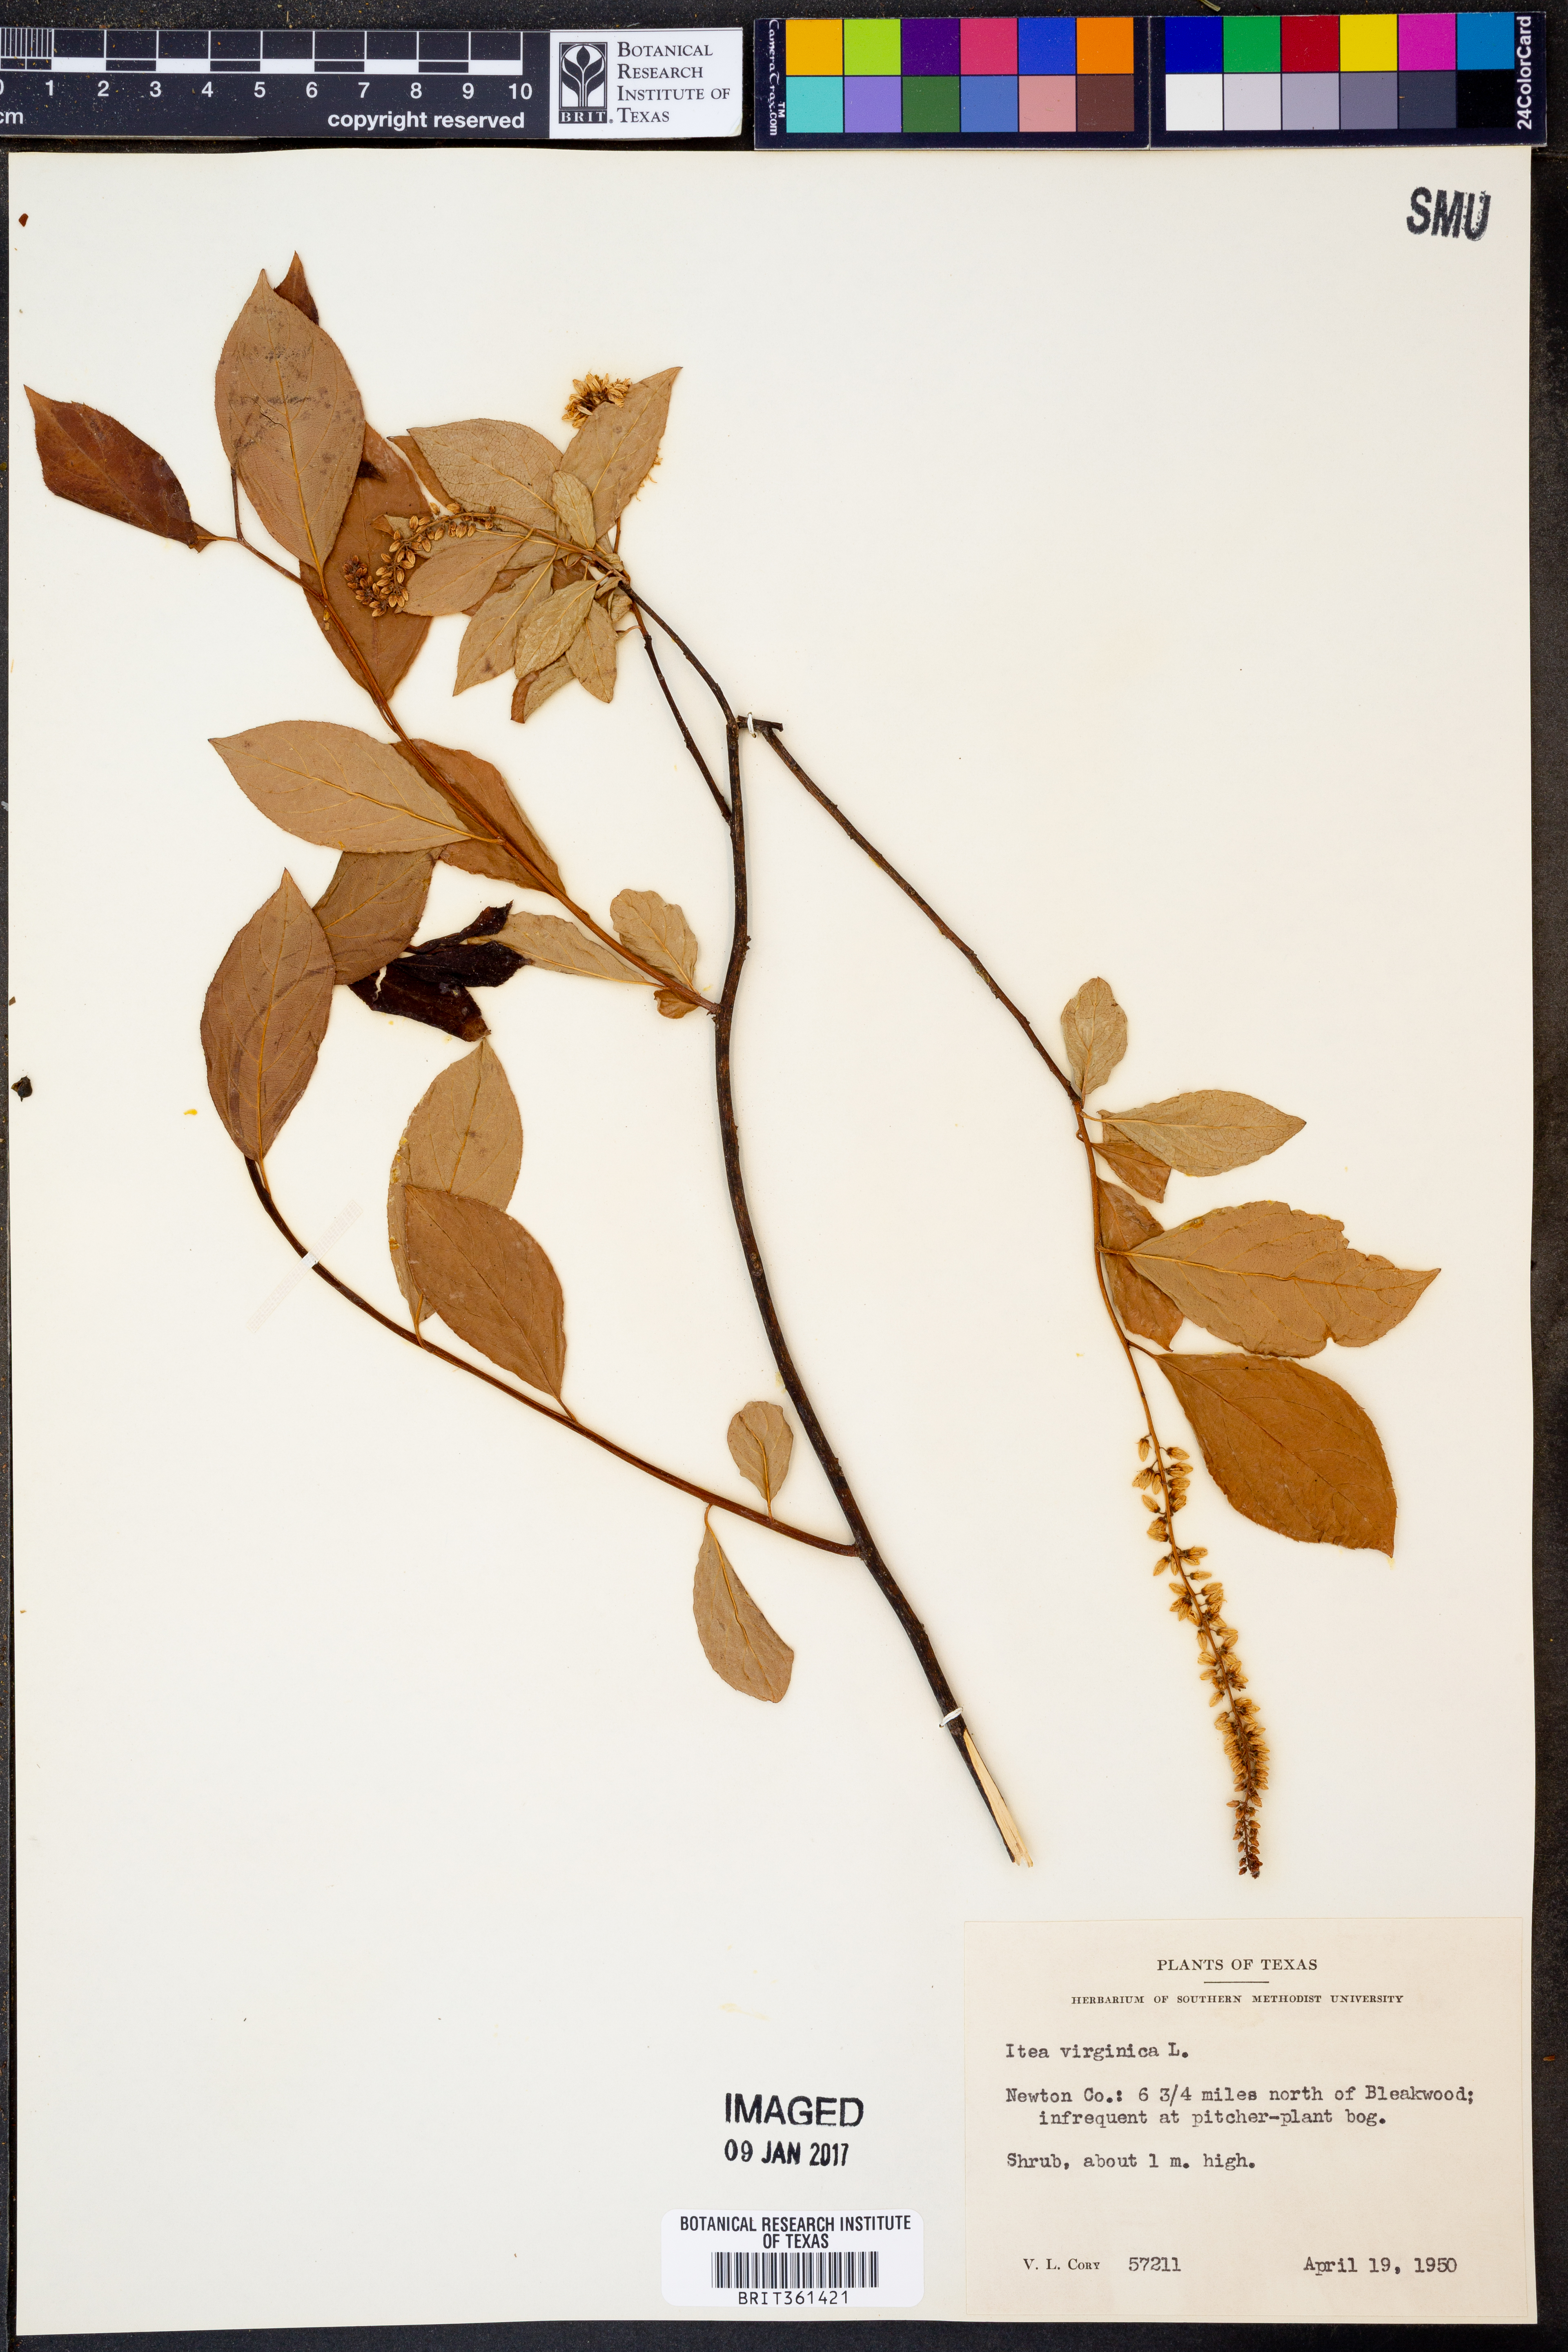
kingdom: Plantae
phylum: Tracheophyta
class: Magnoliopsida
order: Saxifragales
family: Iteaceae
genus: Itea
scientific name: Itea virginica
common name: Sweetspire
